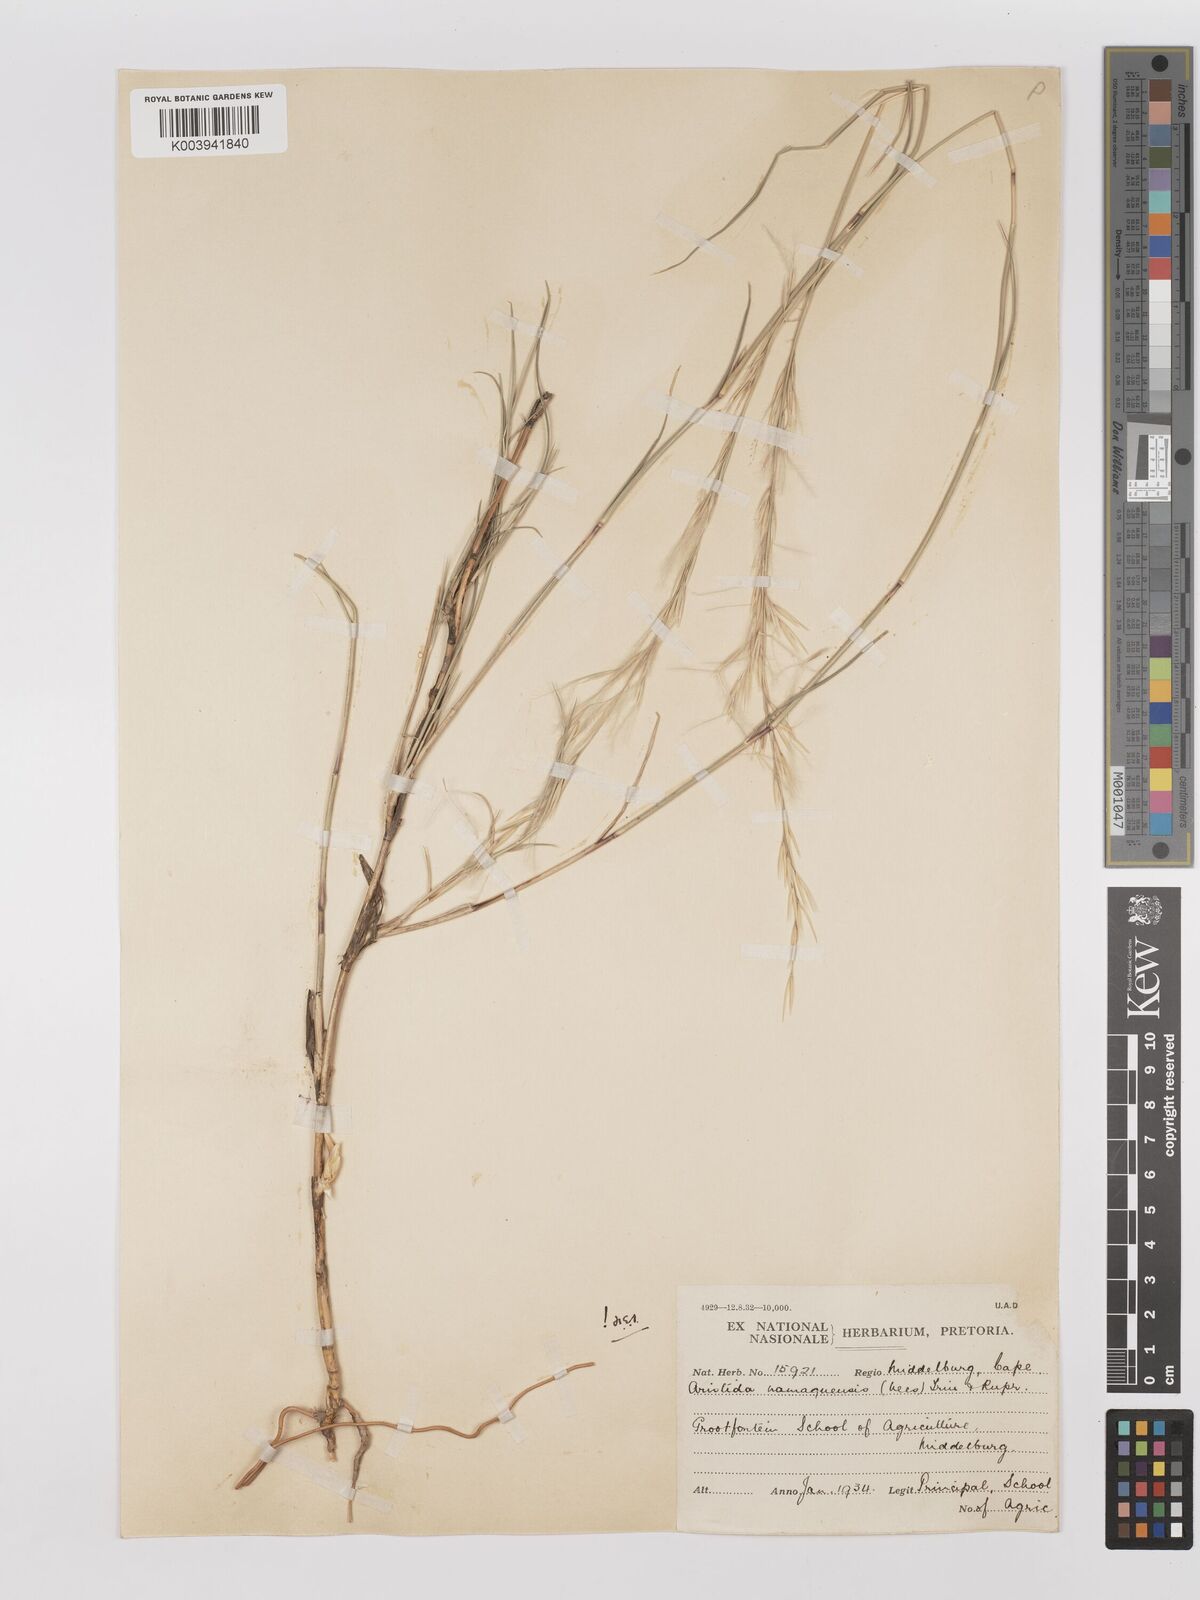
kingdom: Plantae
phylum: Tracheophyta
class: Liliopsida
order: Poales
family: Poaceae
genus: Stipagrostis
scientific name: Stipagrostis namaquensis
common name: River bushman grass
